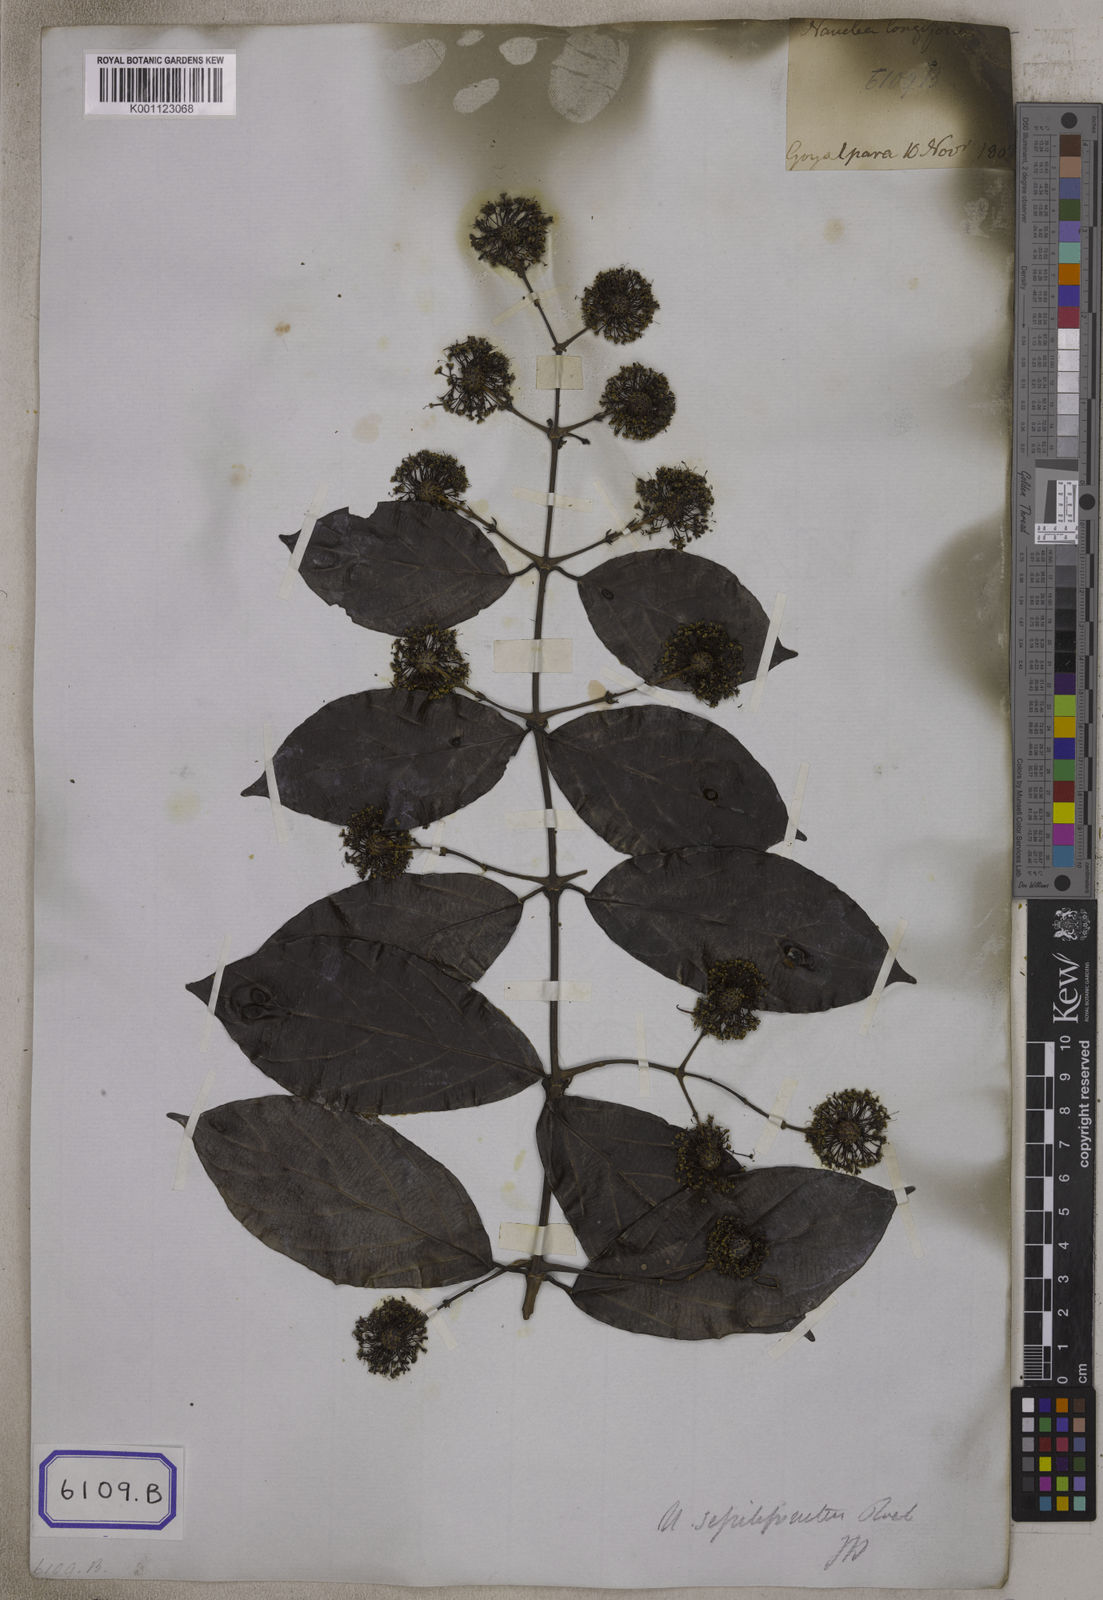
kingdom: Plantae
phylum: Tracheophyta
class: Magnoliopsida
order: Gentianales
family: Rubiaceae
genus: Uncaria
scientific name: Uncaria sessilifructus
